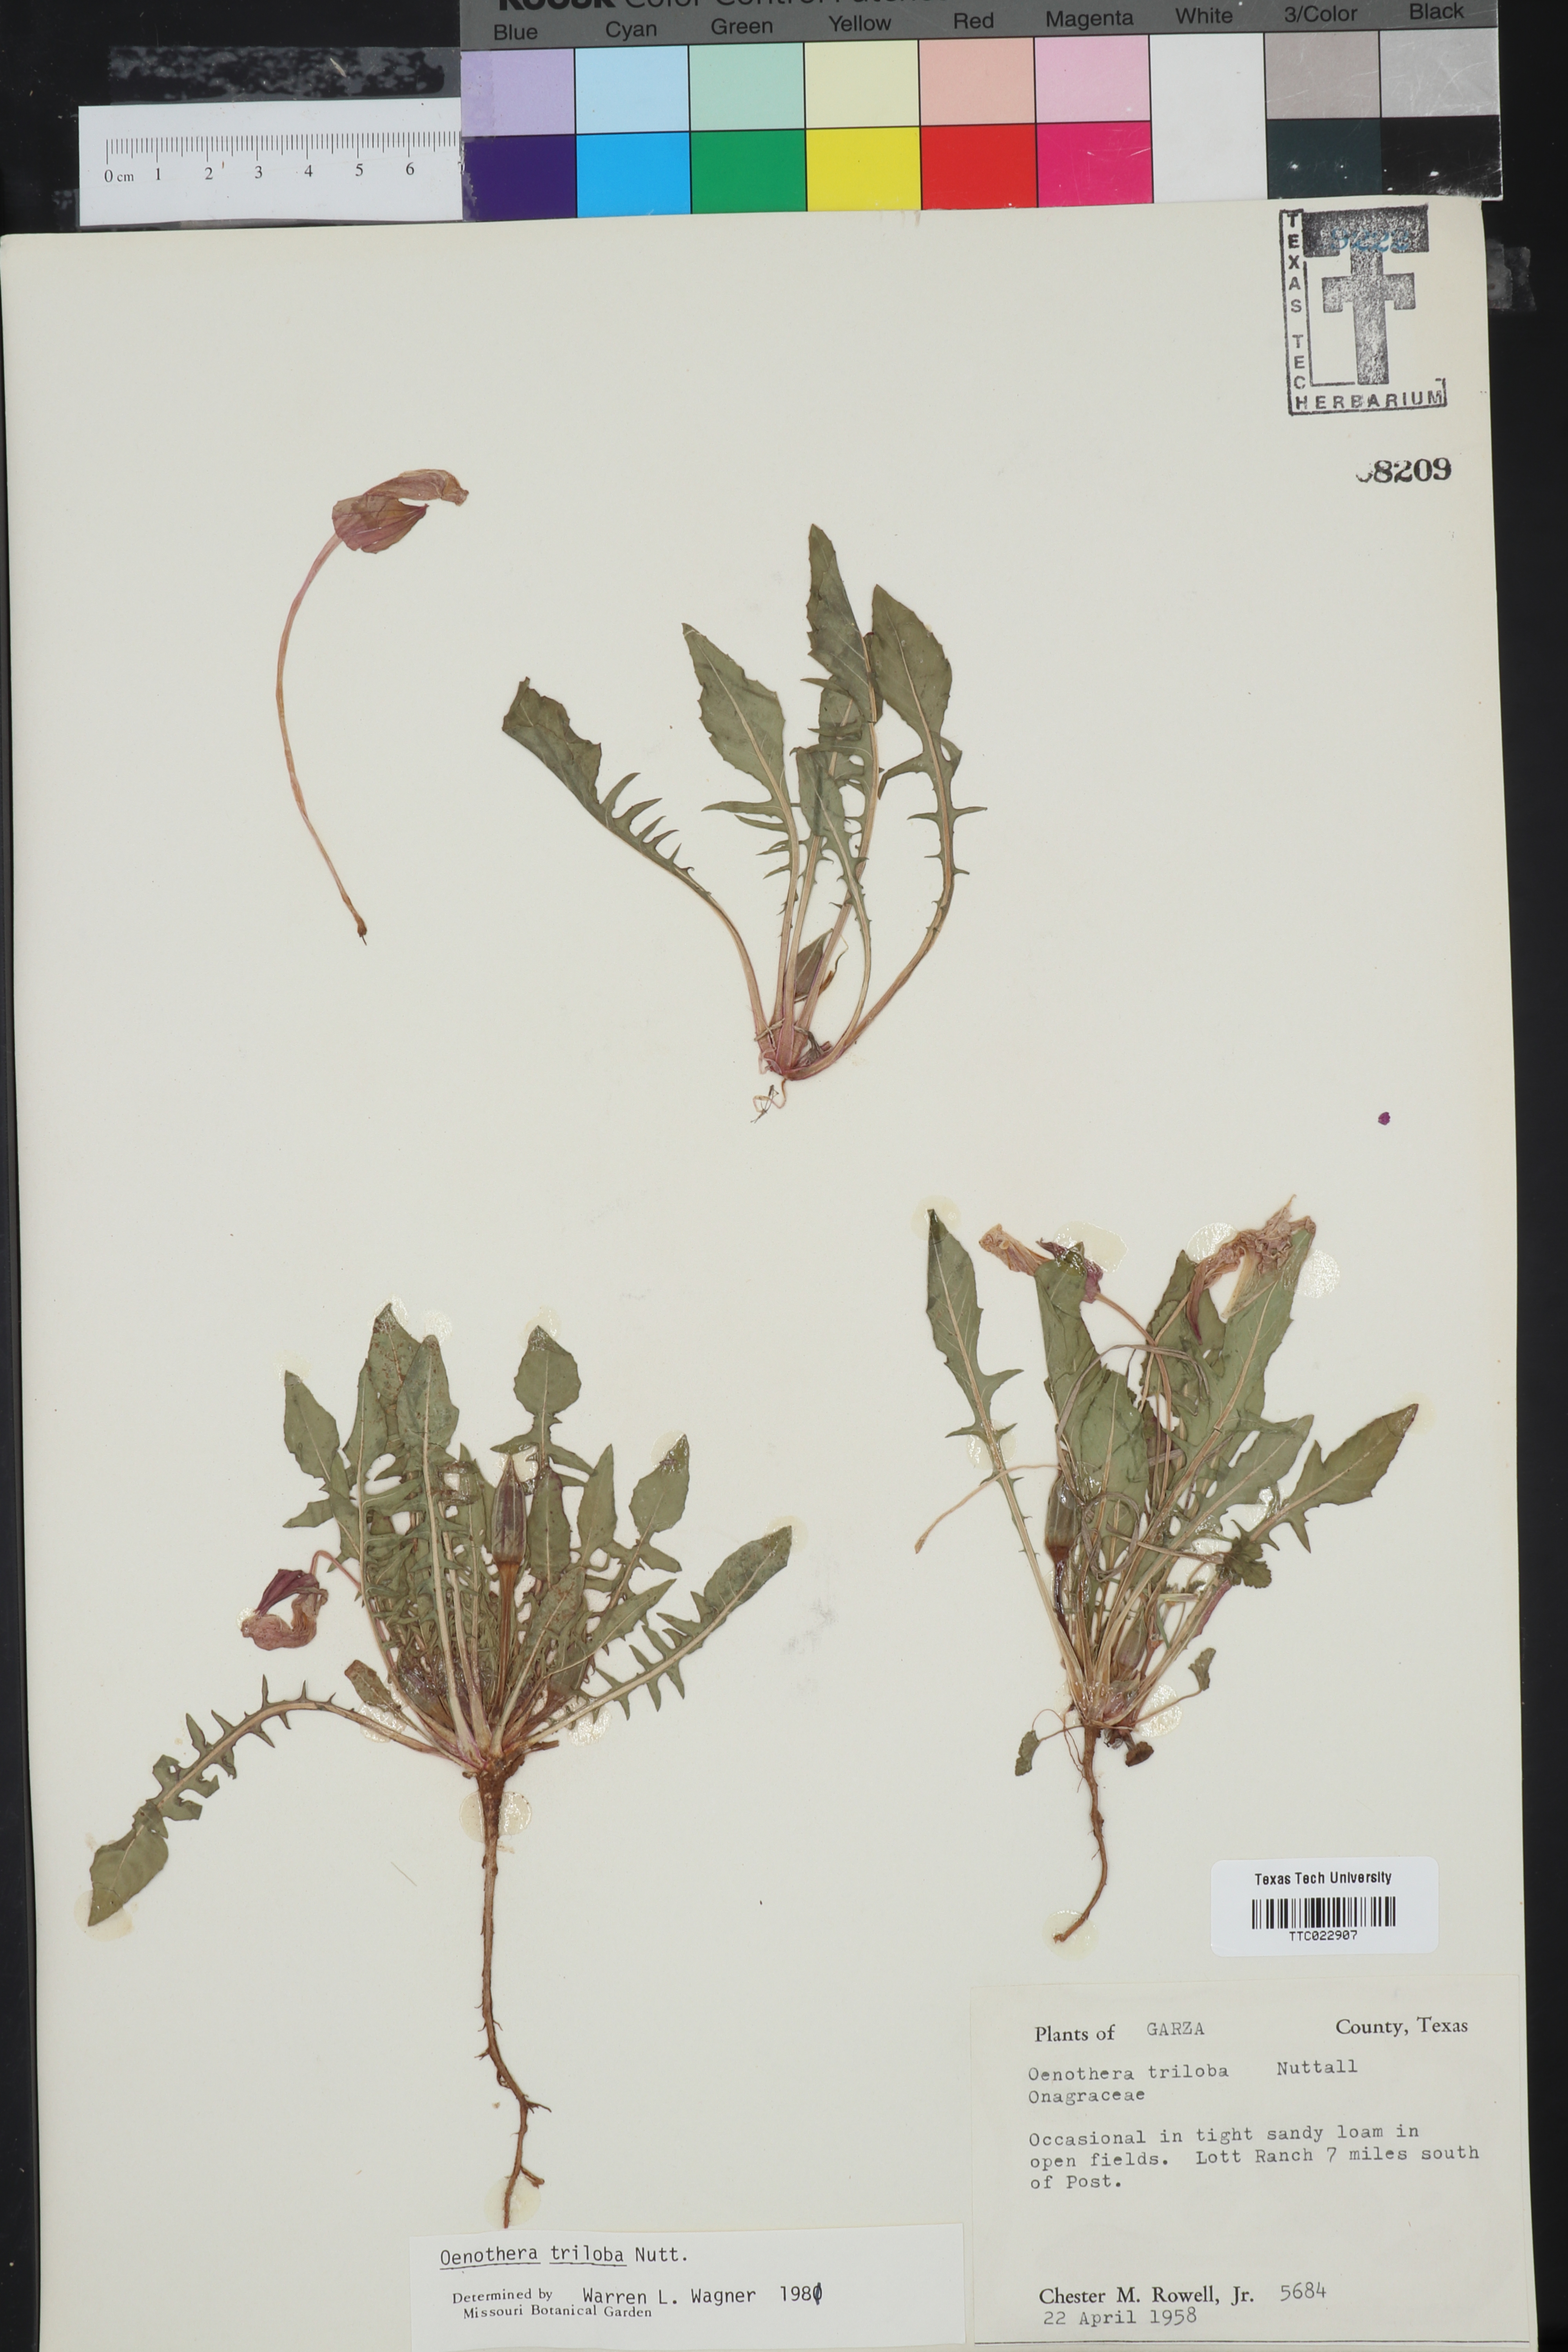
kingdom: Plantae
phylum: Tracheophyta
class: Magnoliopsida
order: Myrtales
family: Onagraceae
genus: Oenothera
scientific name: Oenothera triloba
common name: Sessile evening-primrose
